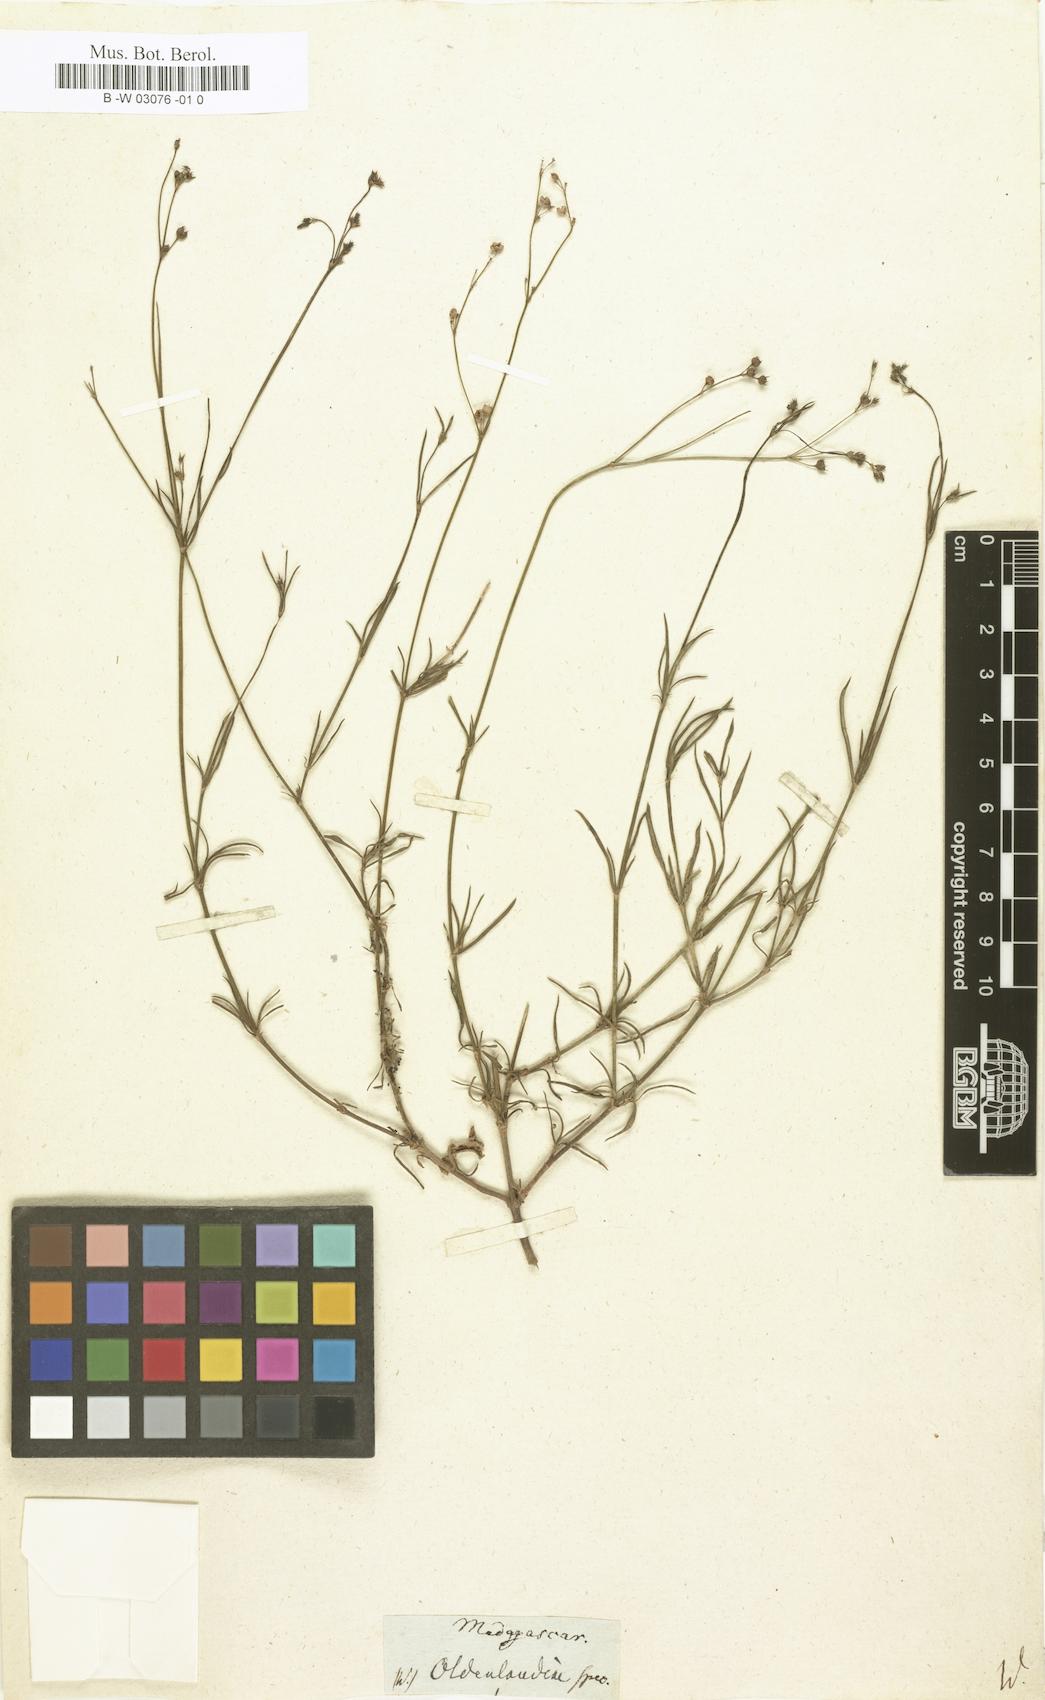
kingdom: Plantae
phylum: Tracheophyta
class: Magnoliopsida
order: Gentianales
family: Rubiaceae
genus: Oldenlandia
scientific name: Oldenlandia stricta
